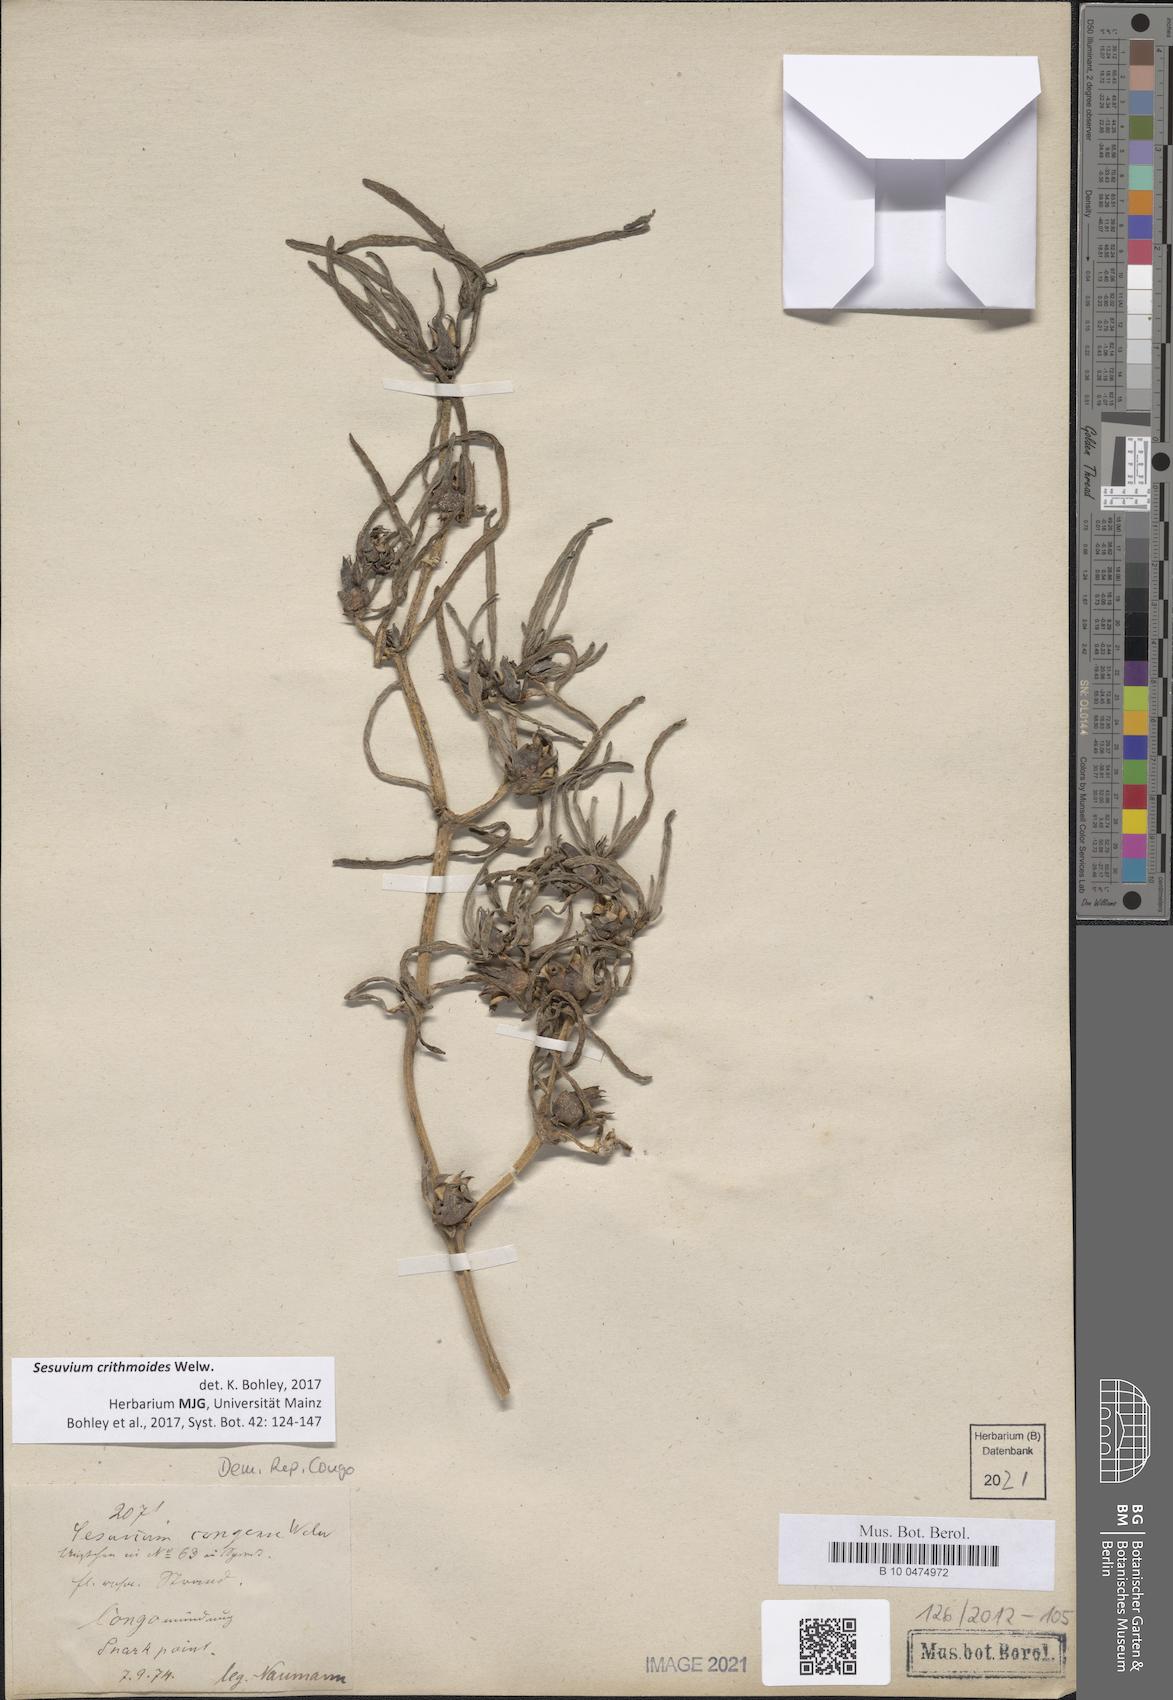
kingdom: Plantae
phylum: Tracheophyta
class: Magnoliopsida
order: Caryophyllales
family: Aizoaceae
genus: Sesuvium
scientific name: Sesuvium crithmoides
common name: Tropical seapurslane
